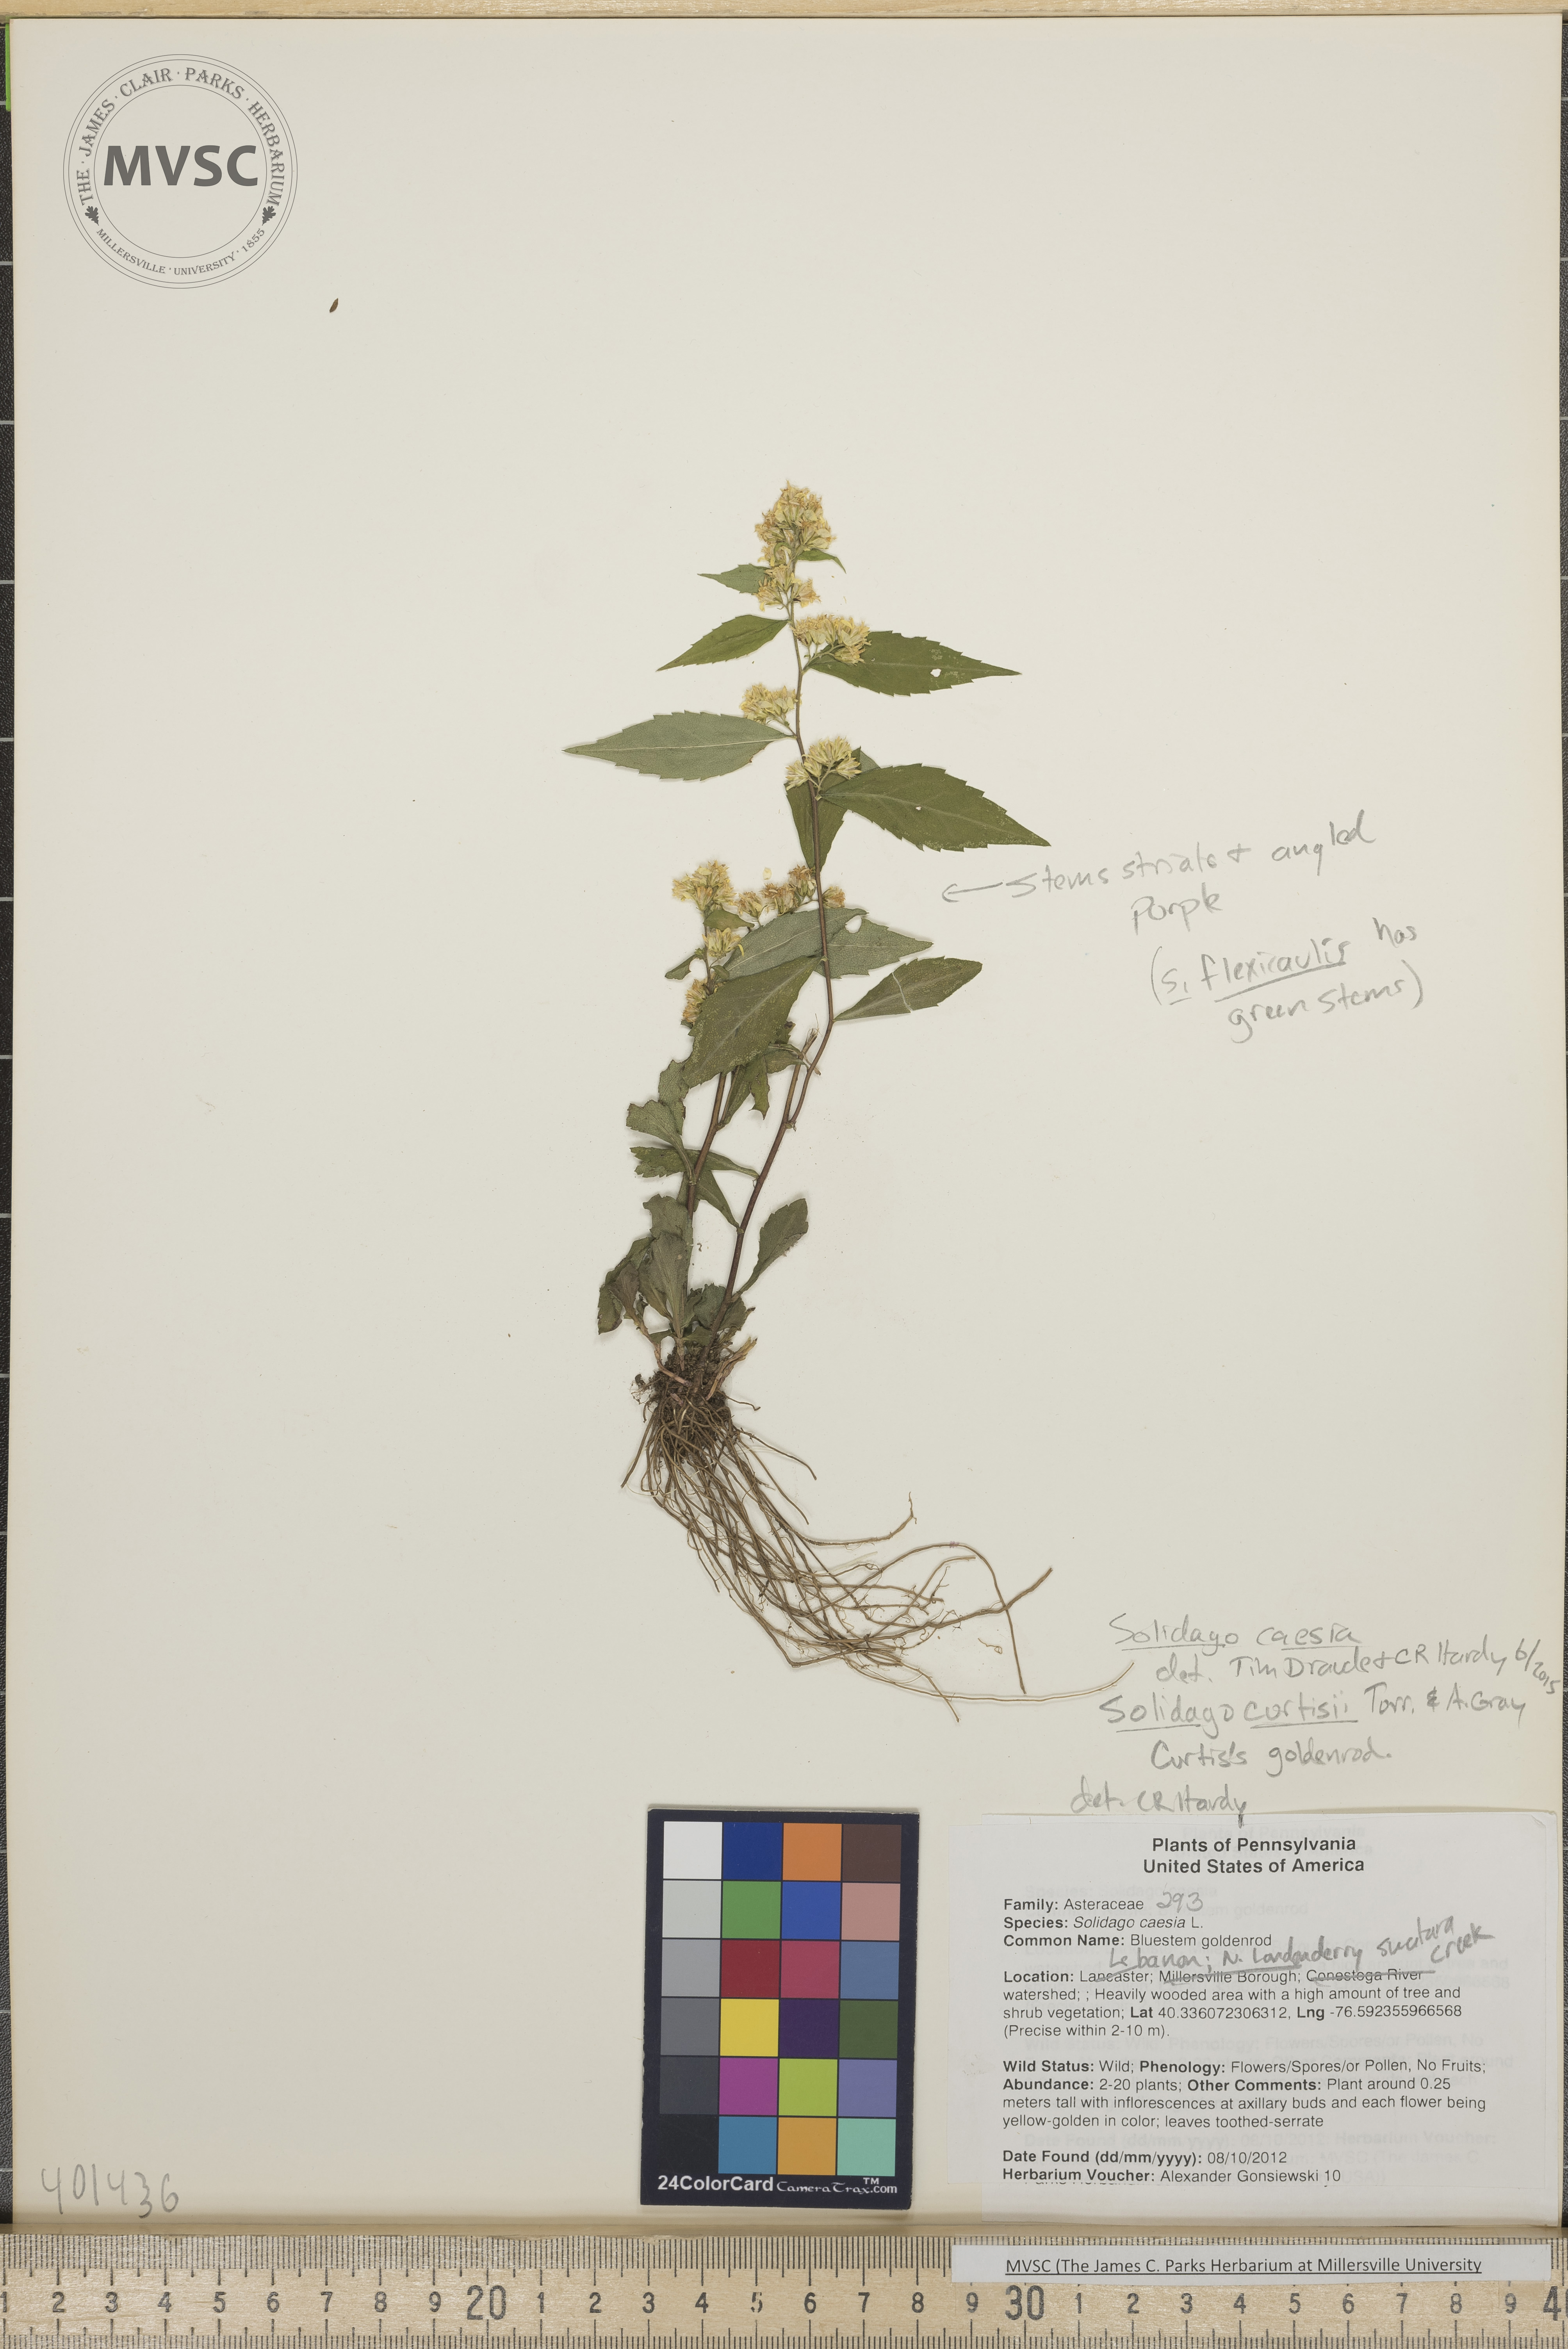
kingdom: Plantae
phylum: Tracheophyta
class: Magnoliopsida
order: Asterales
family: Asteraceae
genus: Solidago
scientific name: Solidago caesia
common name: Bluestem Goldenrod
